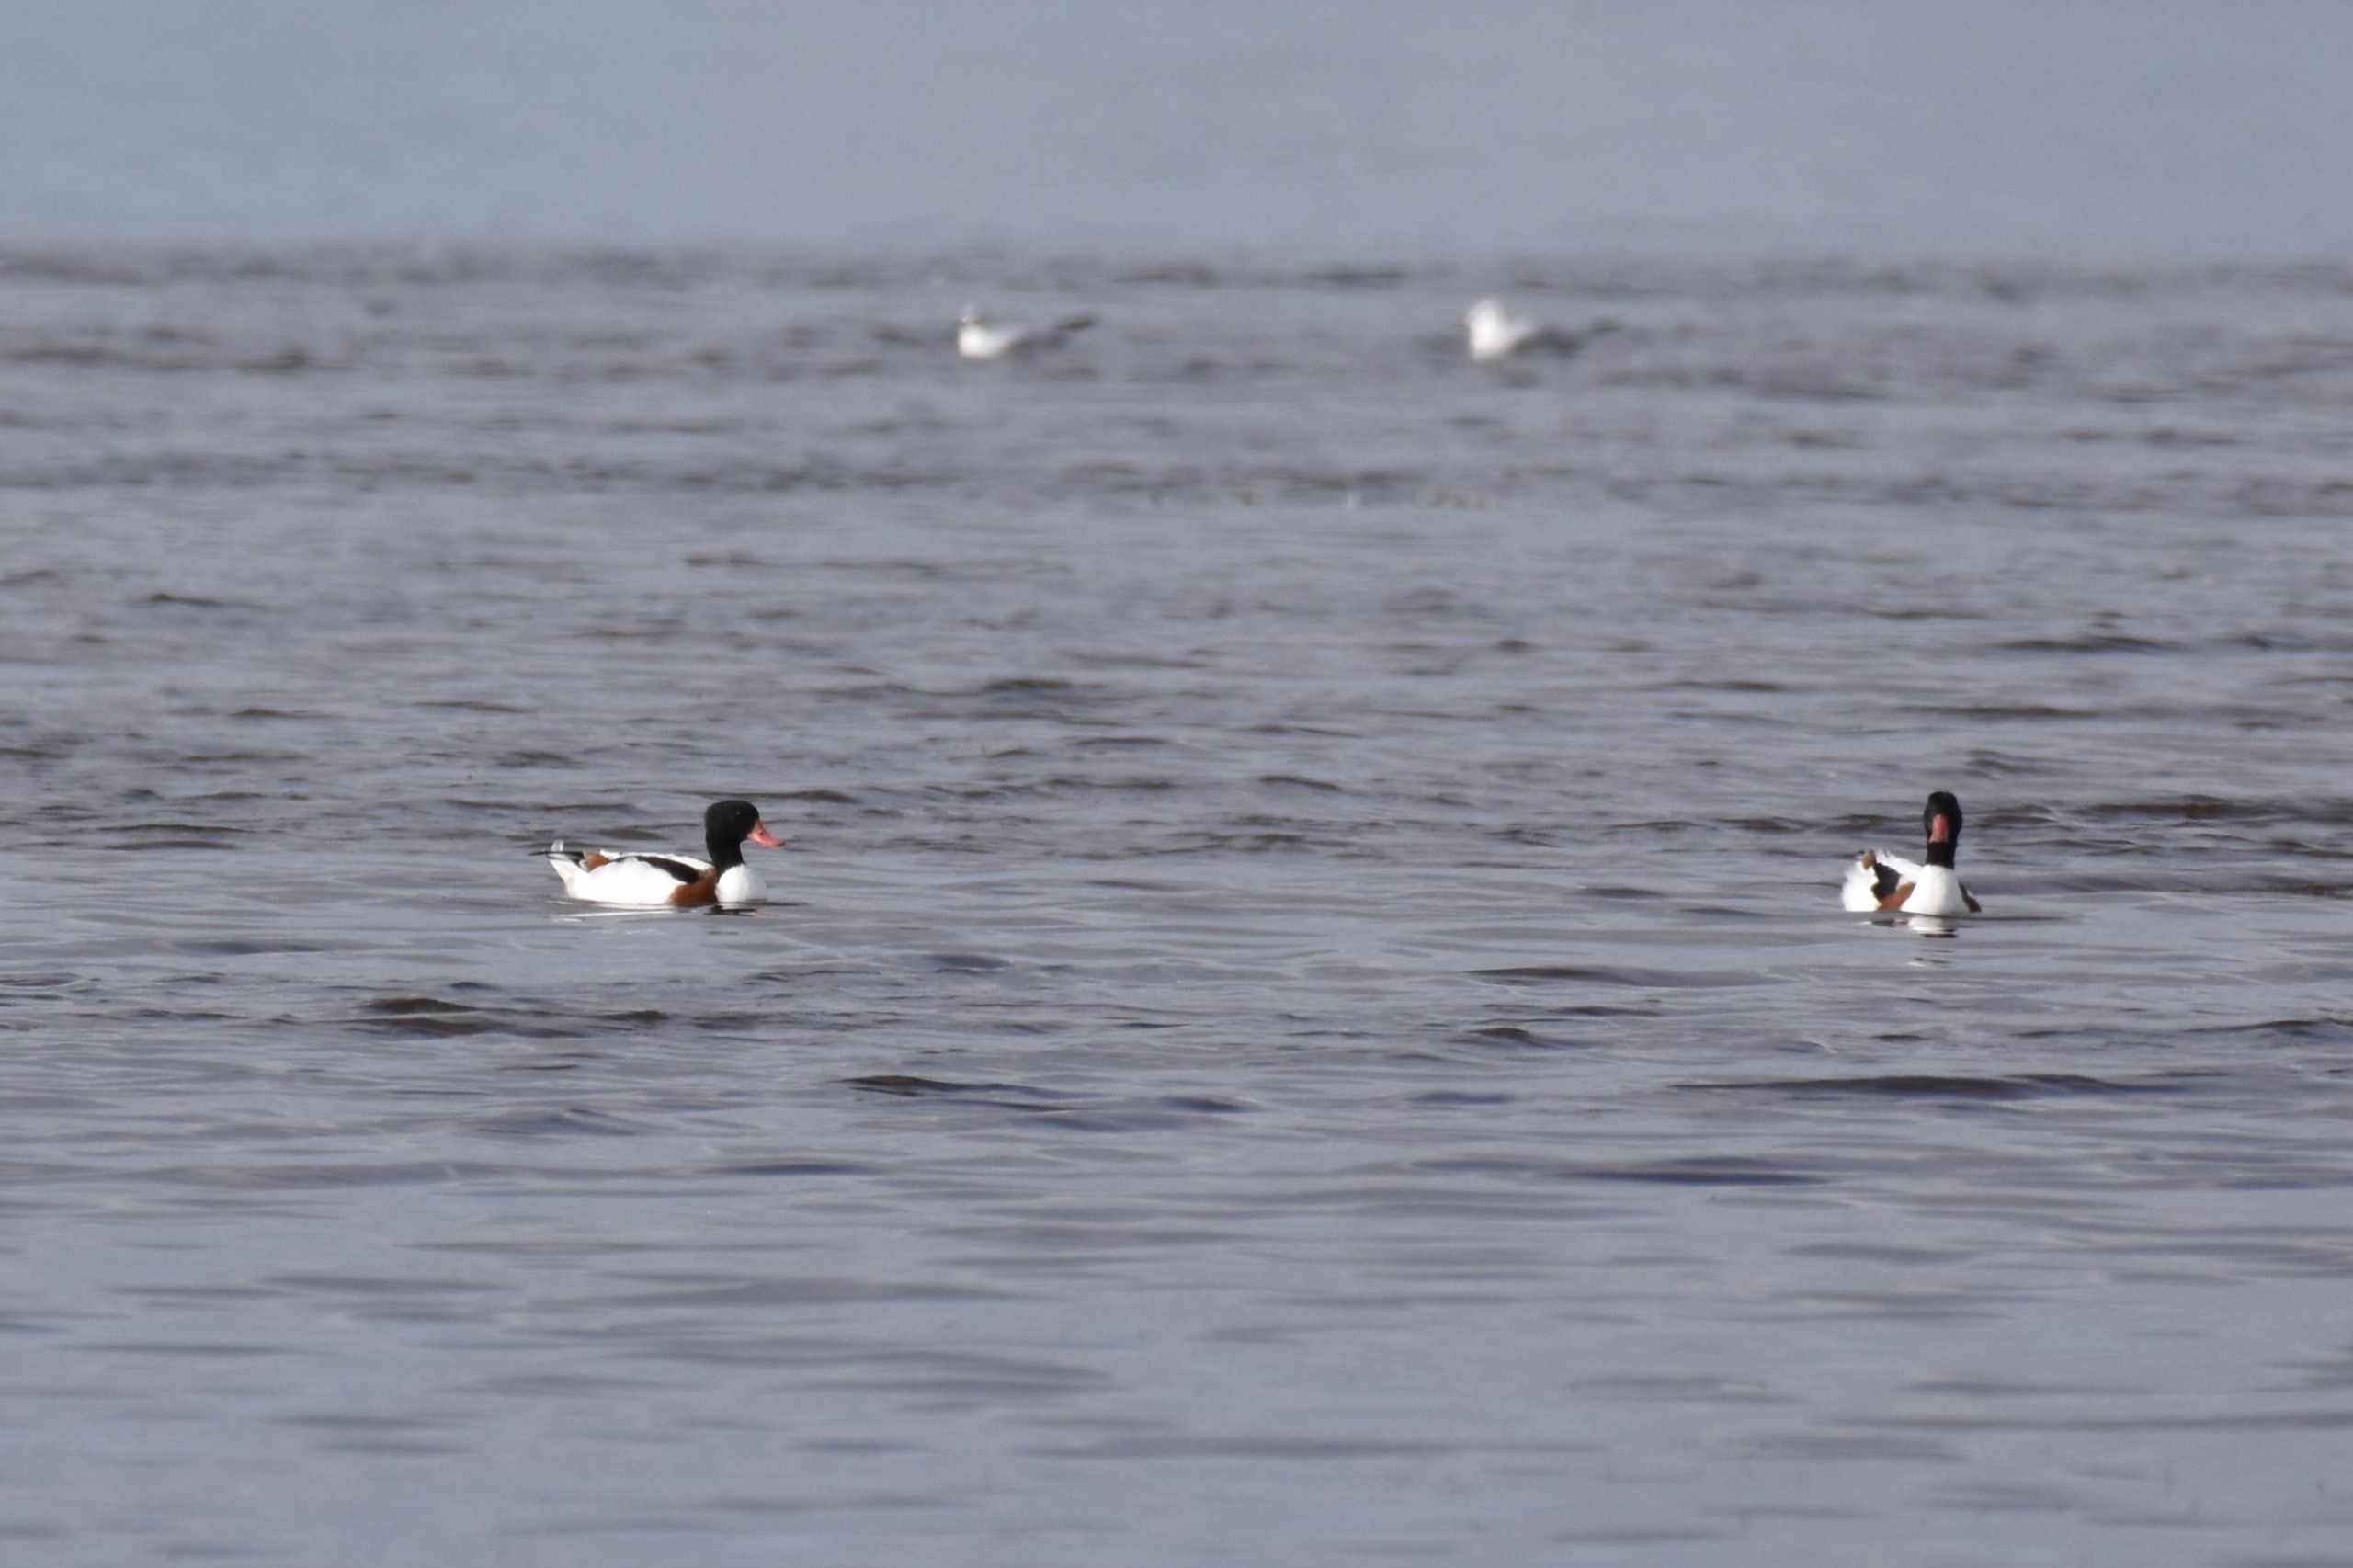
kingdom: Animalia
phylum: Chordata
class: Aves
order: Anseriformes
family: Anatidae
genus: Tadorna
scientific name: Tadorna tadorna
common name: Gravand
